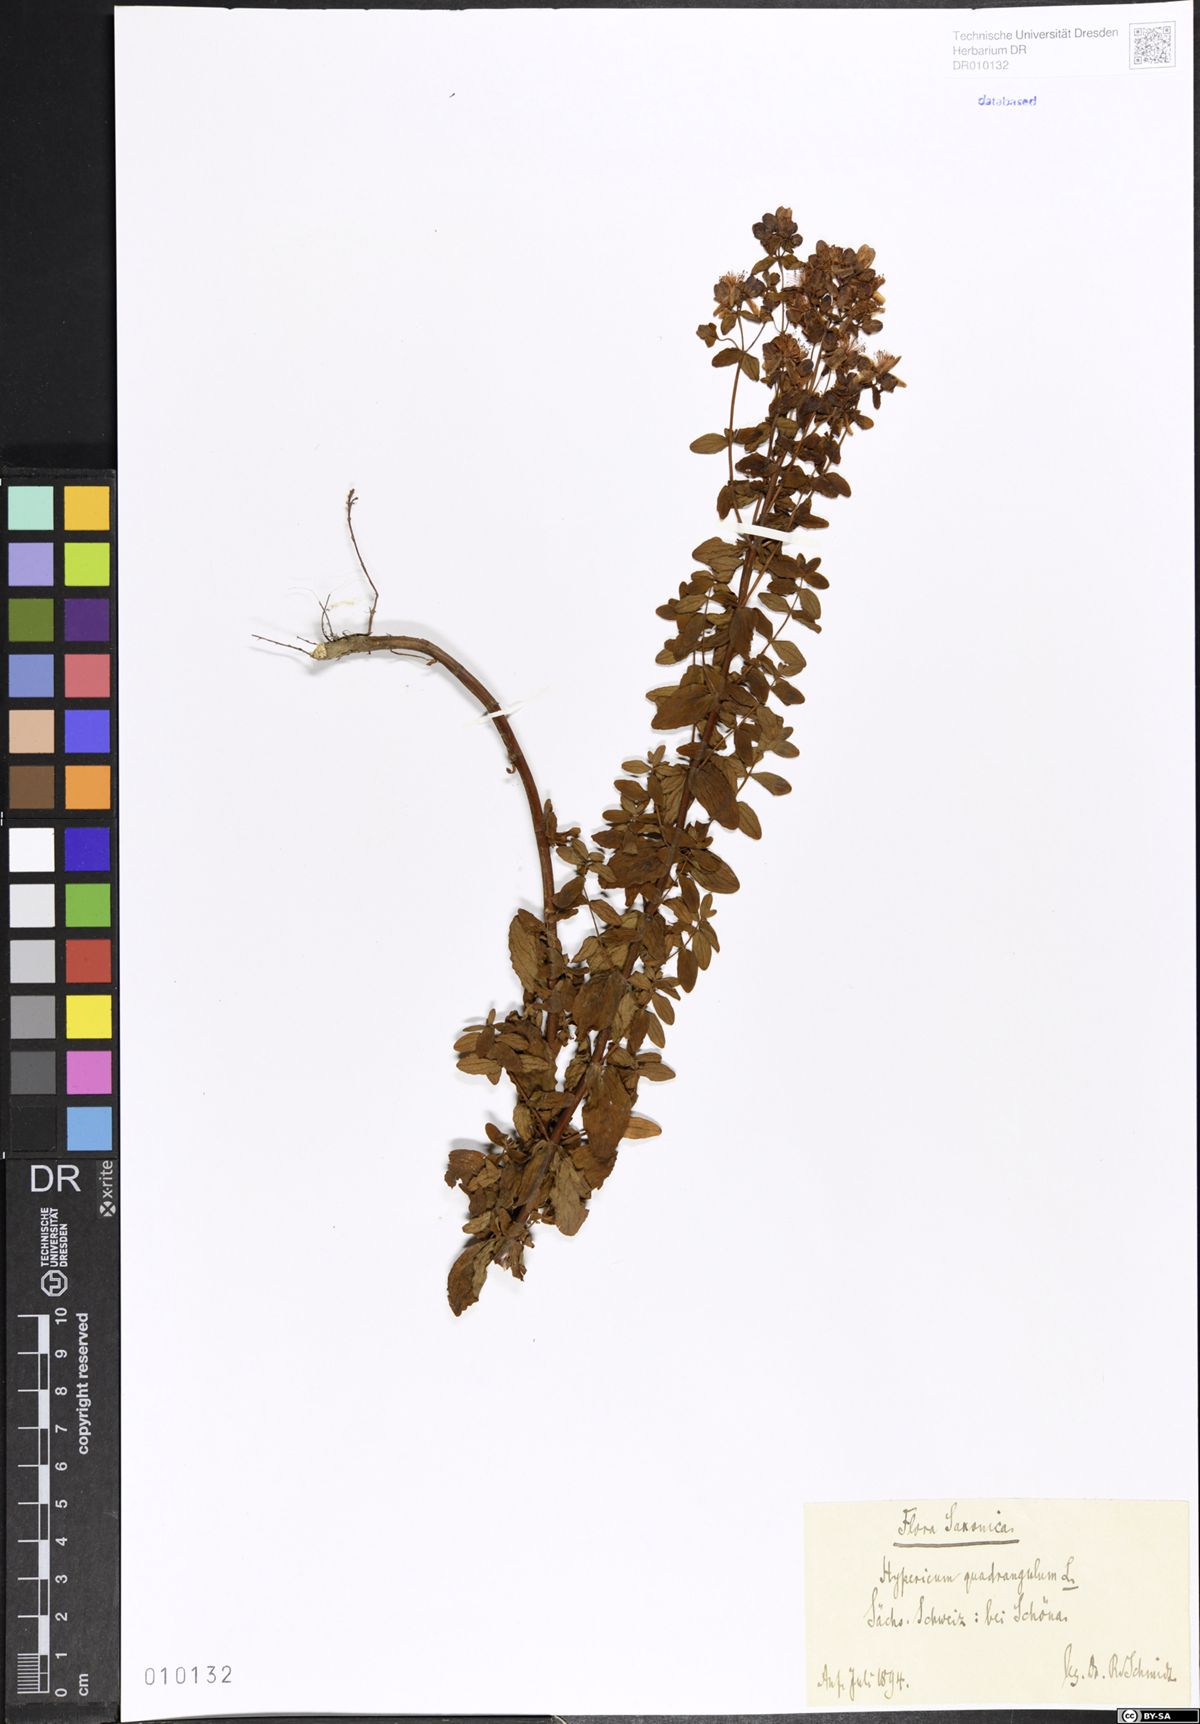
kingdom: Plantae
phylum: Tracheophyta
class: Magnoliopsida
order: Malpighiales
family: Hypericaceae
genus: Hypericum
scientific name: Hypericum maculatum
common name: Imperforate st. john's-wort
